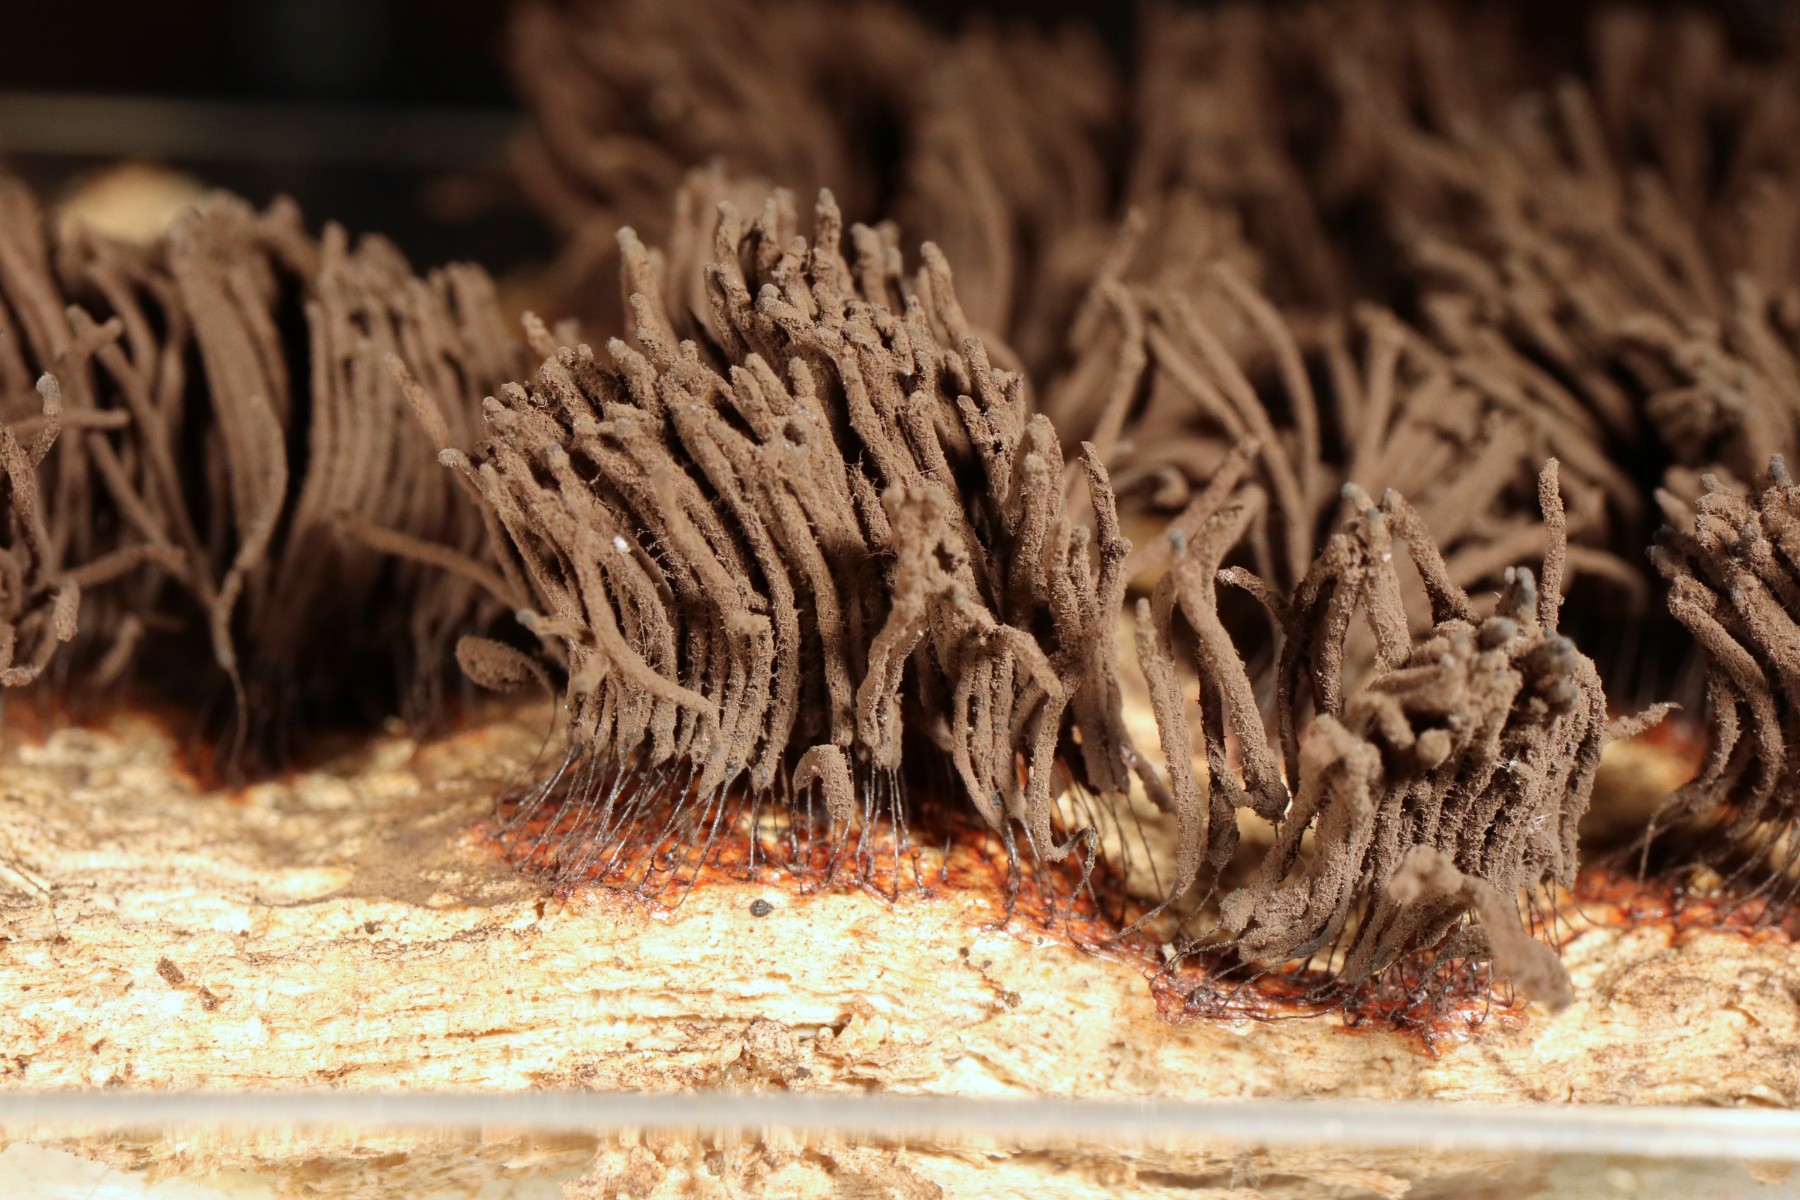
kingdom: Protozoa
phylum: Mycetozoa
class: Myxomycetes
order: Stemonitidales
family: Stemonitidaceae
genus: Stemonitis
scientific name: Stemonitis fusca
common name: sodbrun støvkølle
